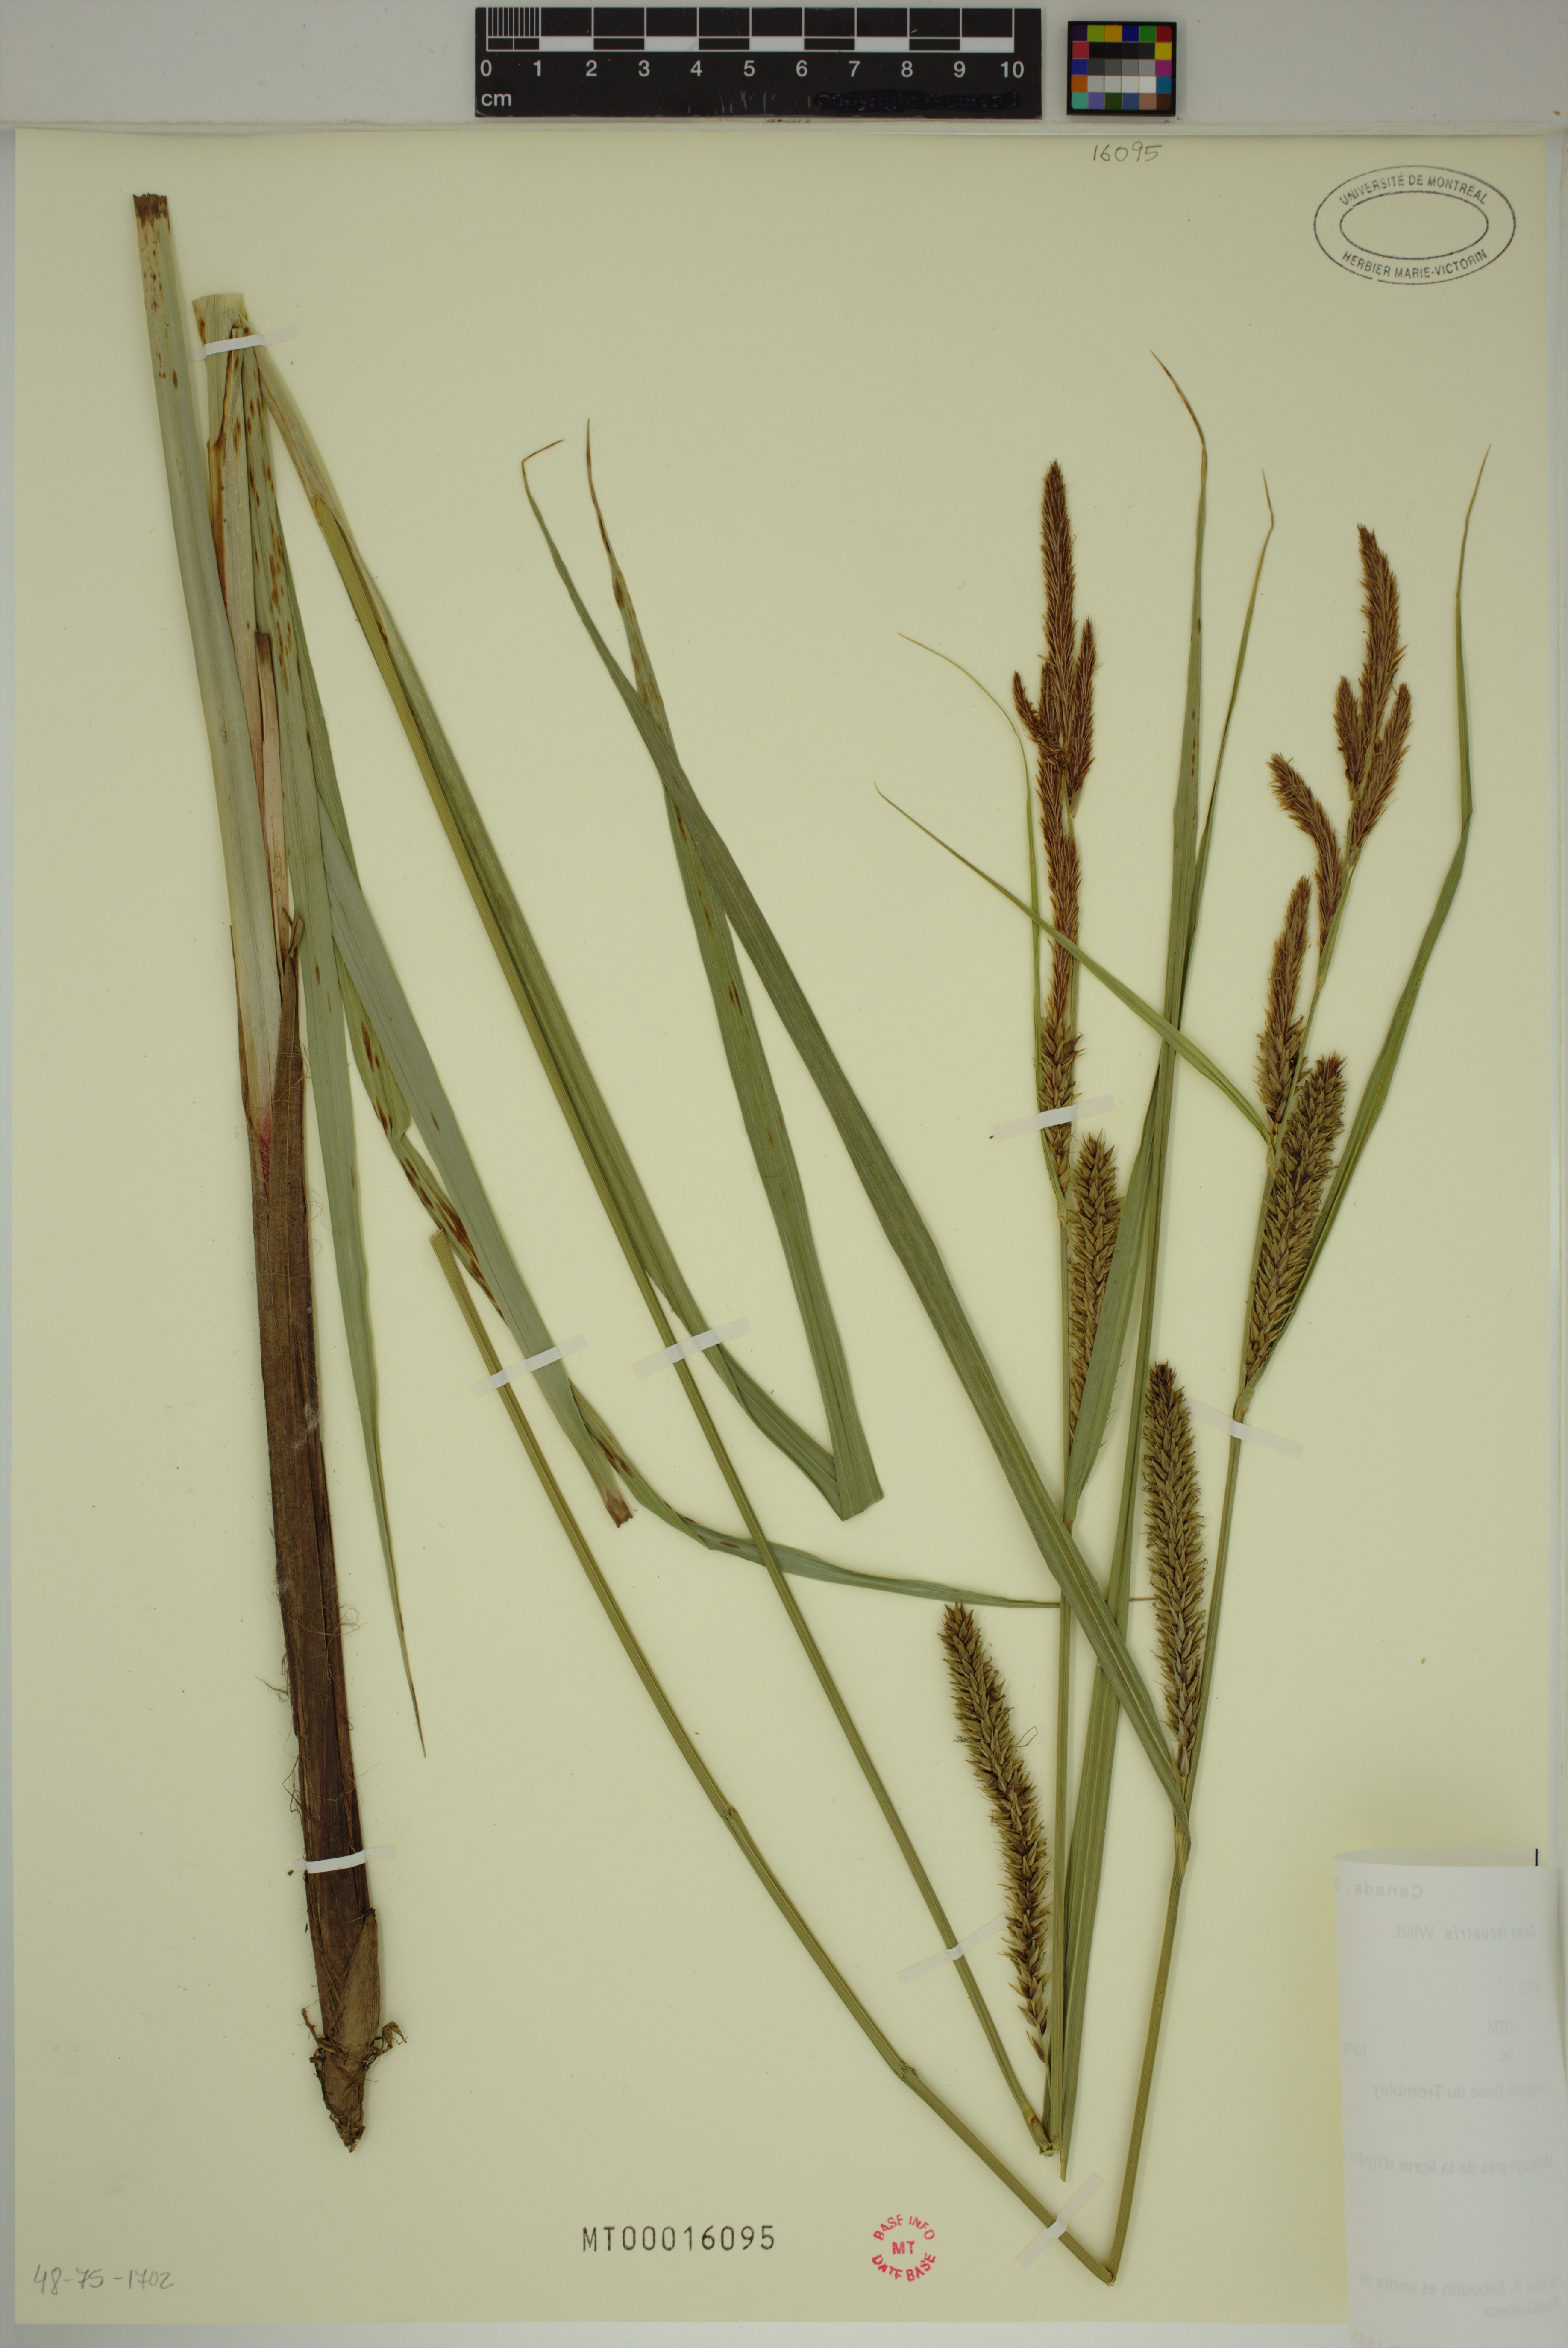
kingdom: Plantae
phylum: Tracheophyta
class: Liliopsida
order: Poales
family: Cyperaceae
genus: Carex
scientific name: Carex lacustris
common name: Common lake sedge
